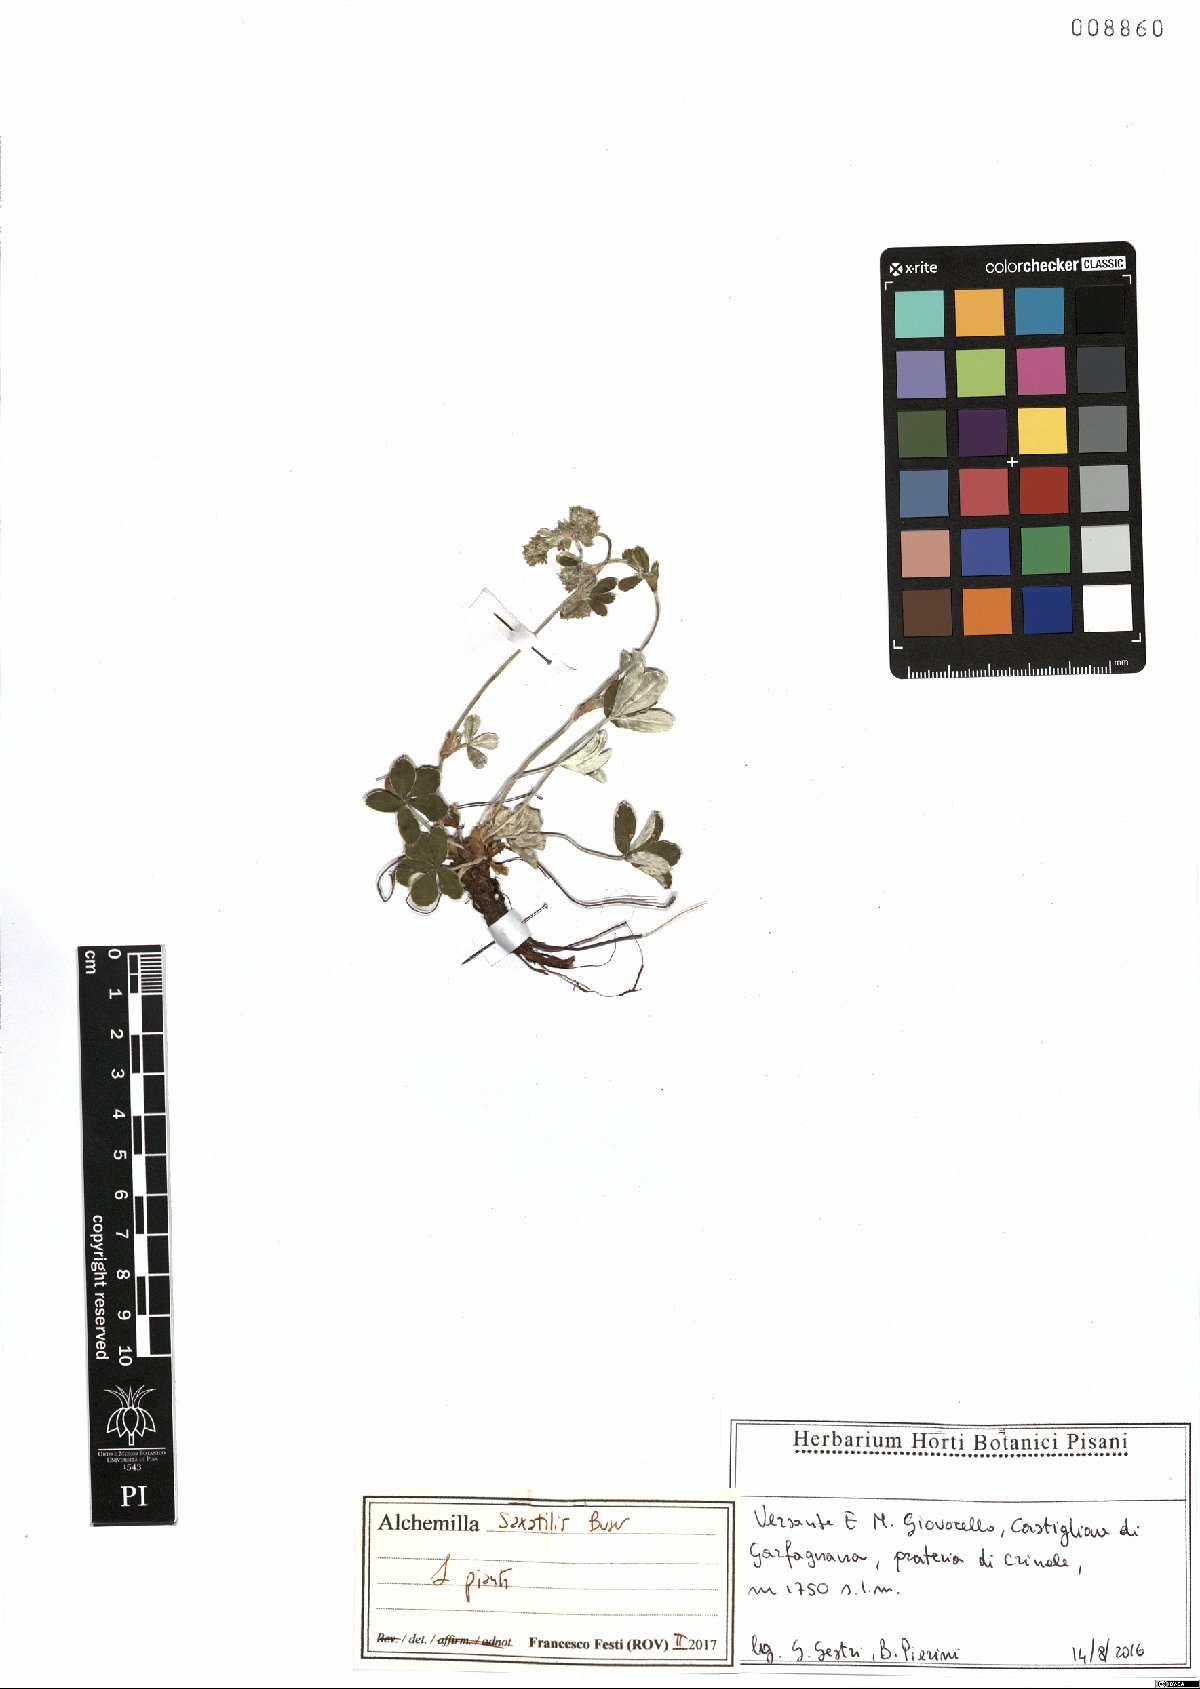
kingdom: Plantae
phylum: Tracheophyta
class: Magnoliopsida
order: Rosales
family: Rosaceae
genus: Alchemilla
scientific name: Alchemilla saxatilis
